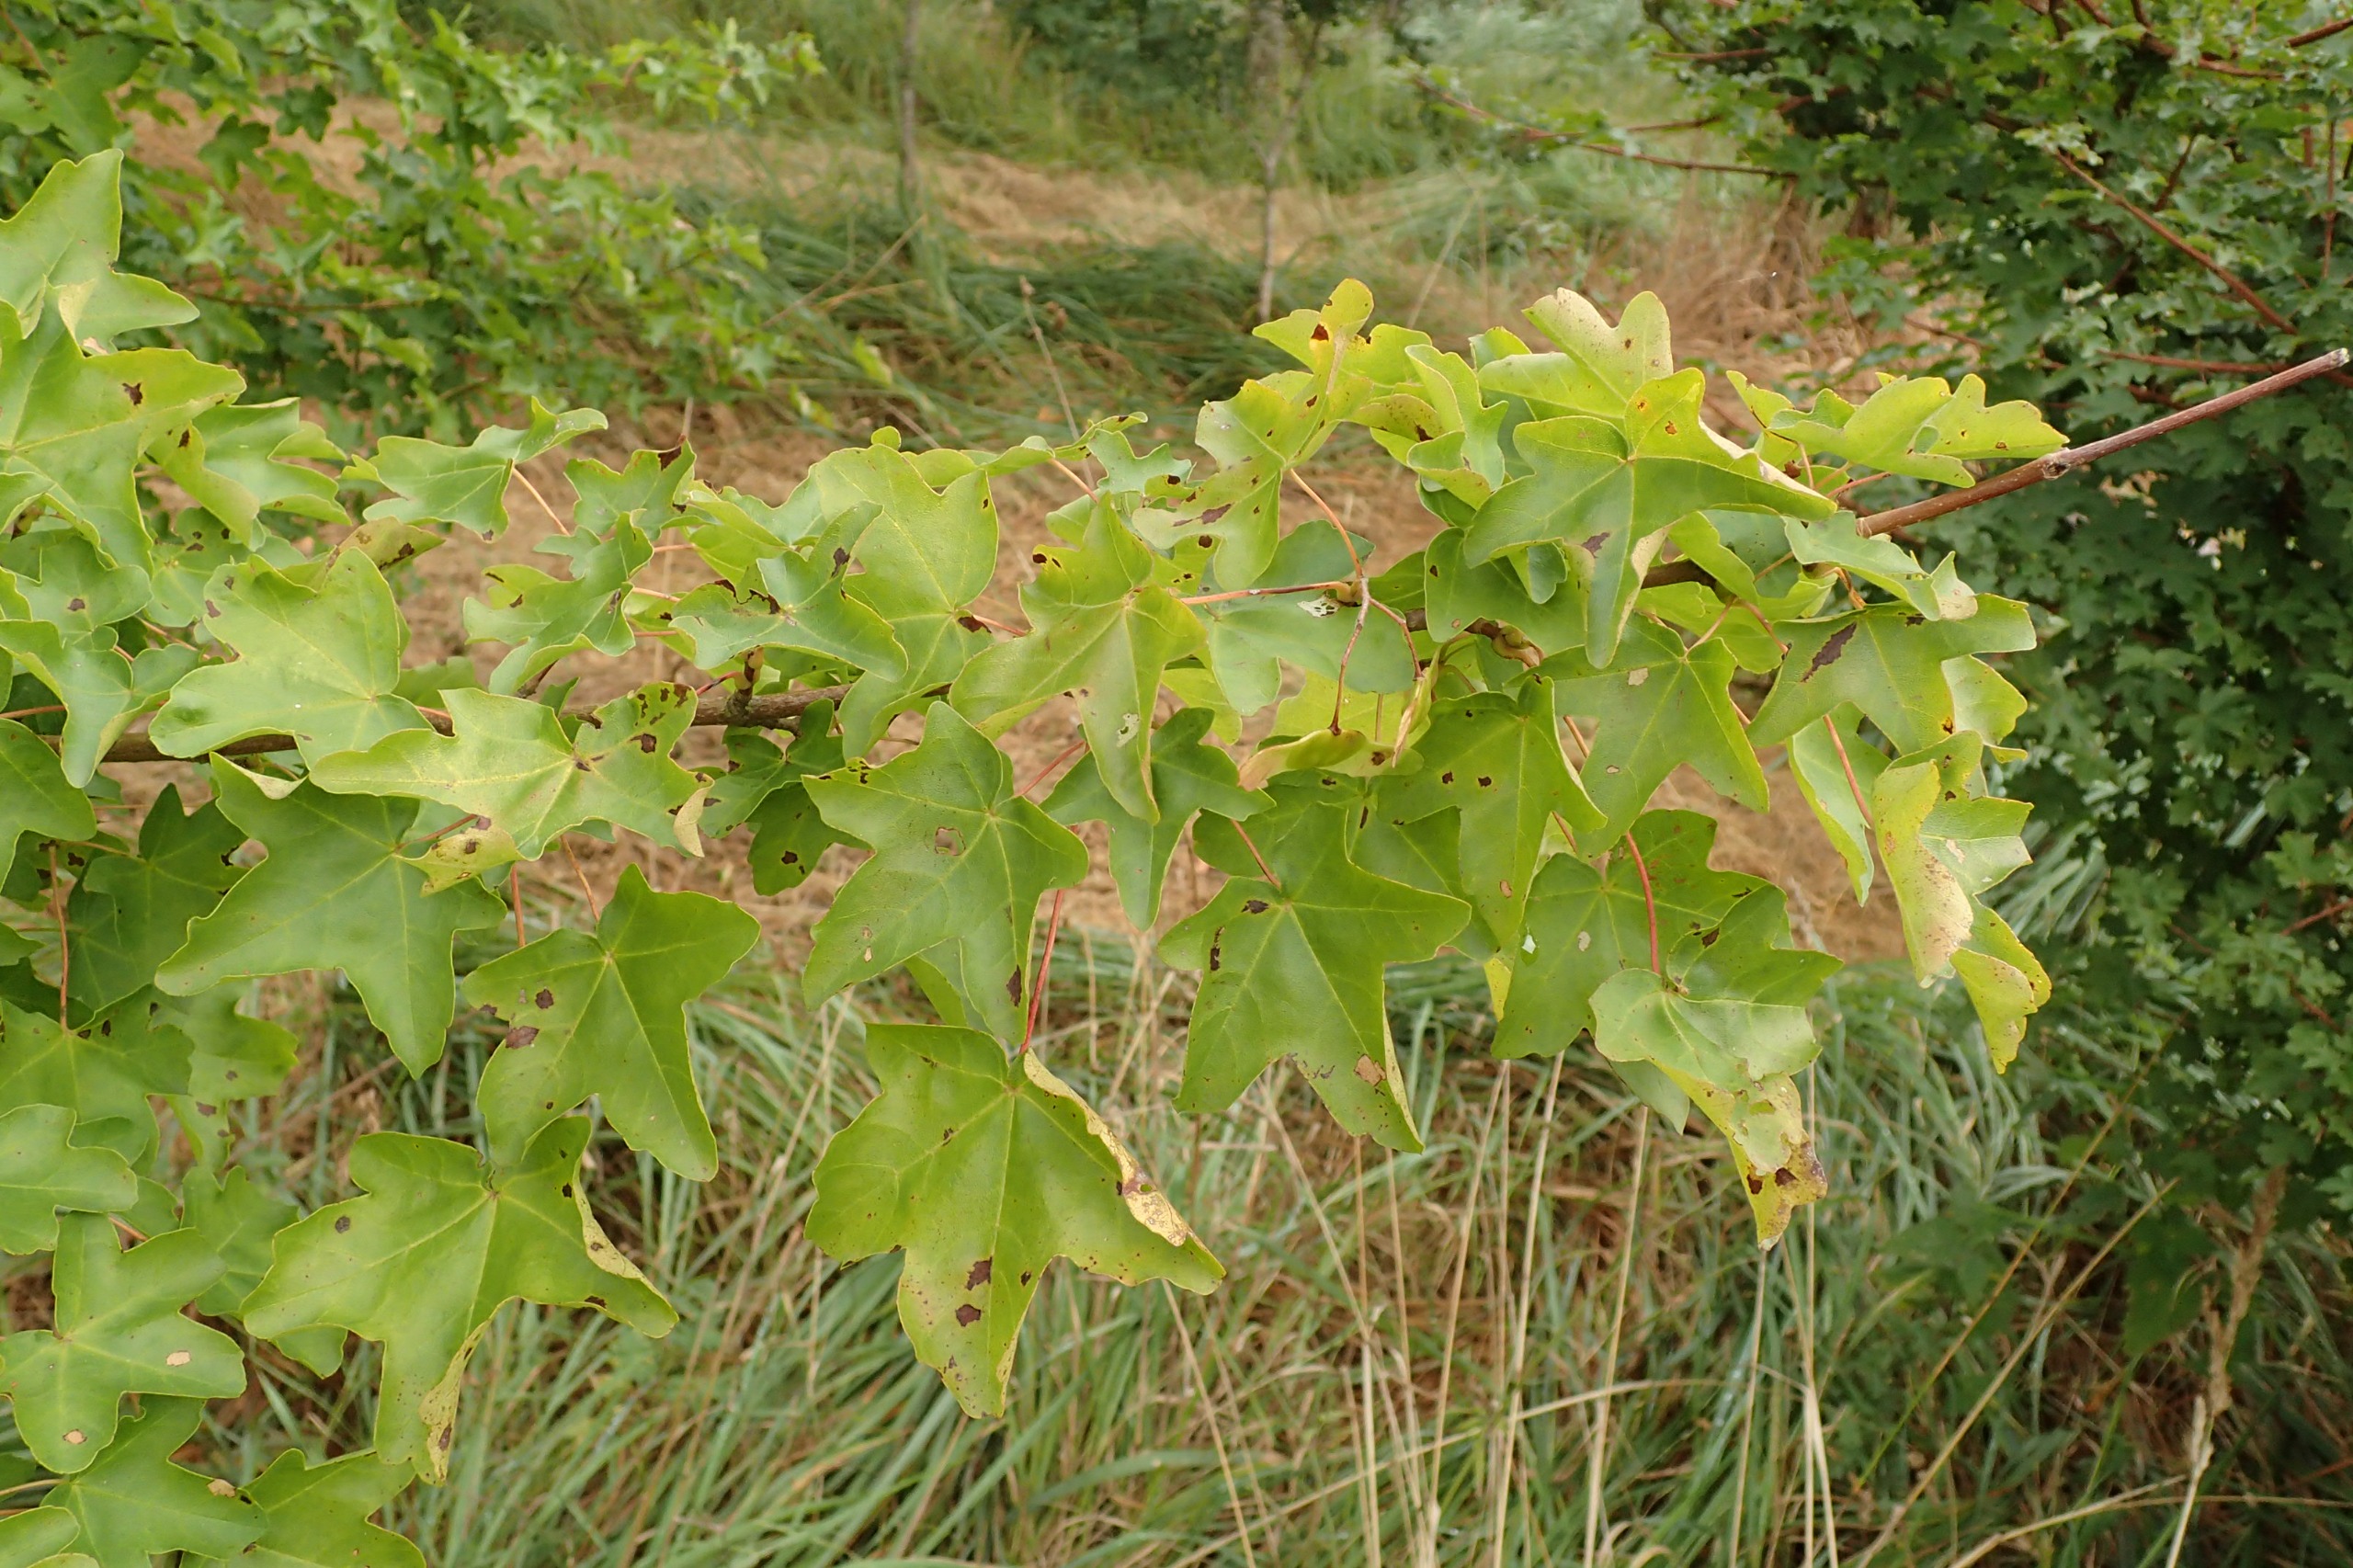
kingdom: Plantae
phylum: Tracheophyta
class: Magnoliopsida
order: Sapindales
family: Sapindaceae
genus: Acer
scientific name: Acer campestre
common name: Navr
